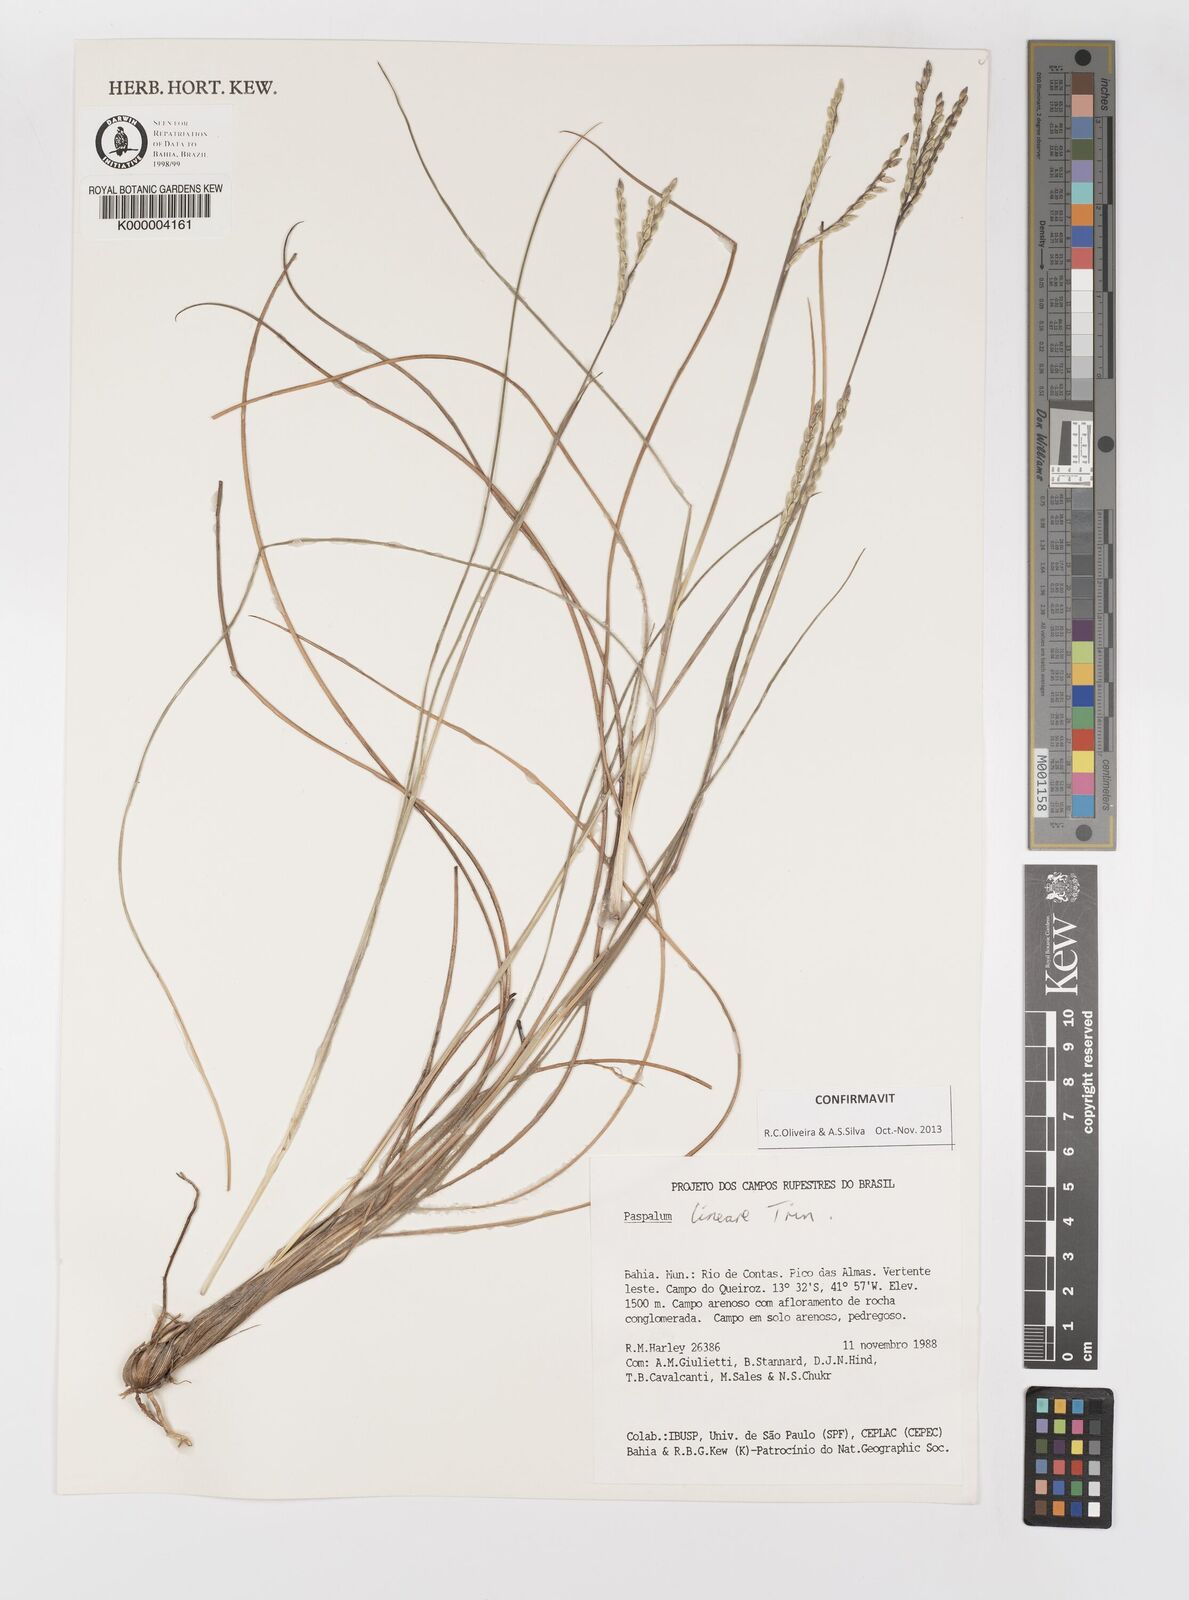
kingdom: Plantae
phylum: Tracheophyta
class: Liliopsida
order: Poales
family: Poaceae
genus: Paspalum
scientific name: Paspalum lineare
